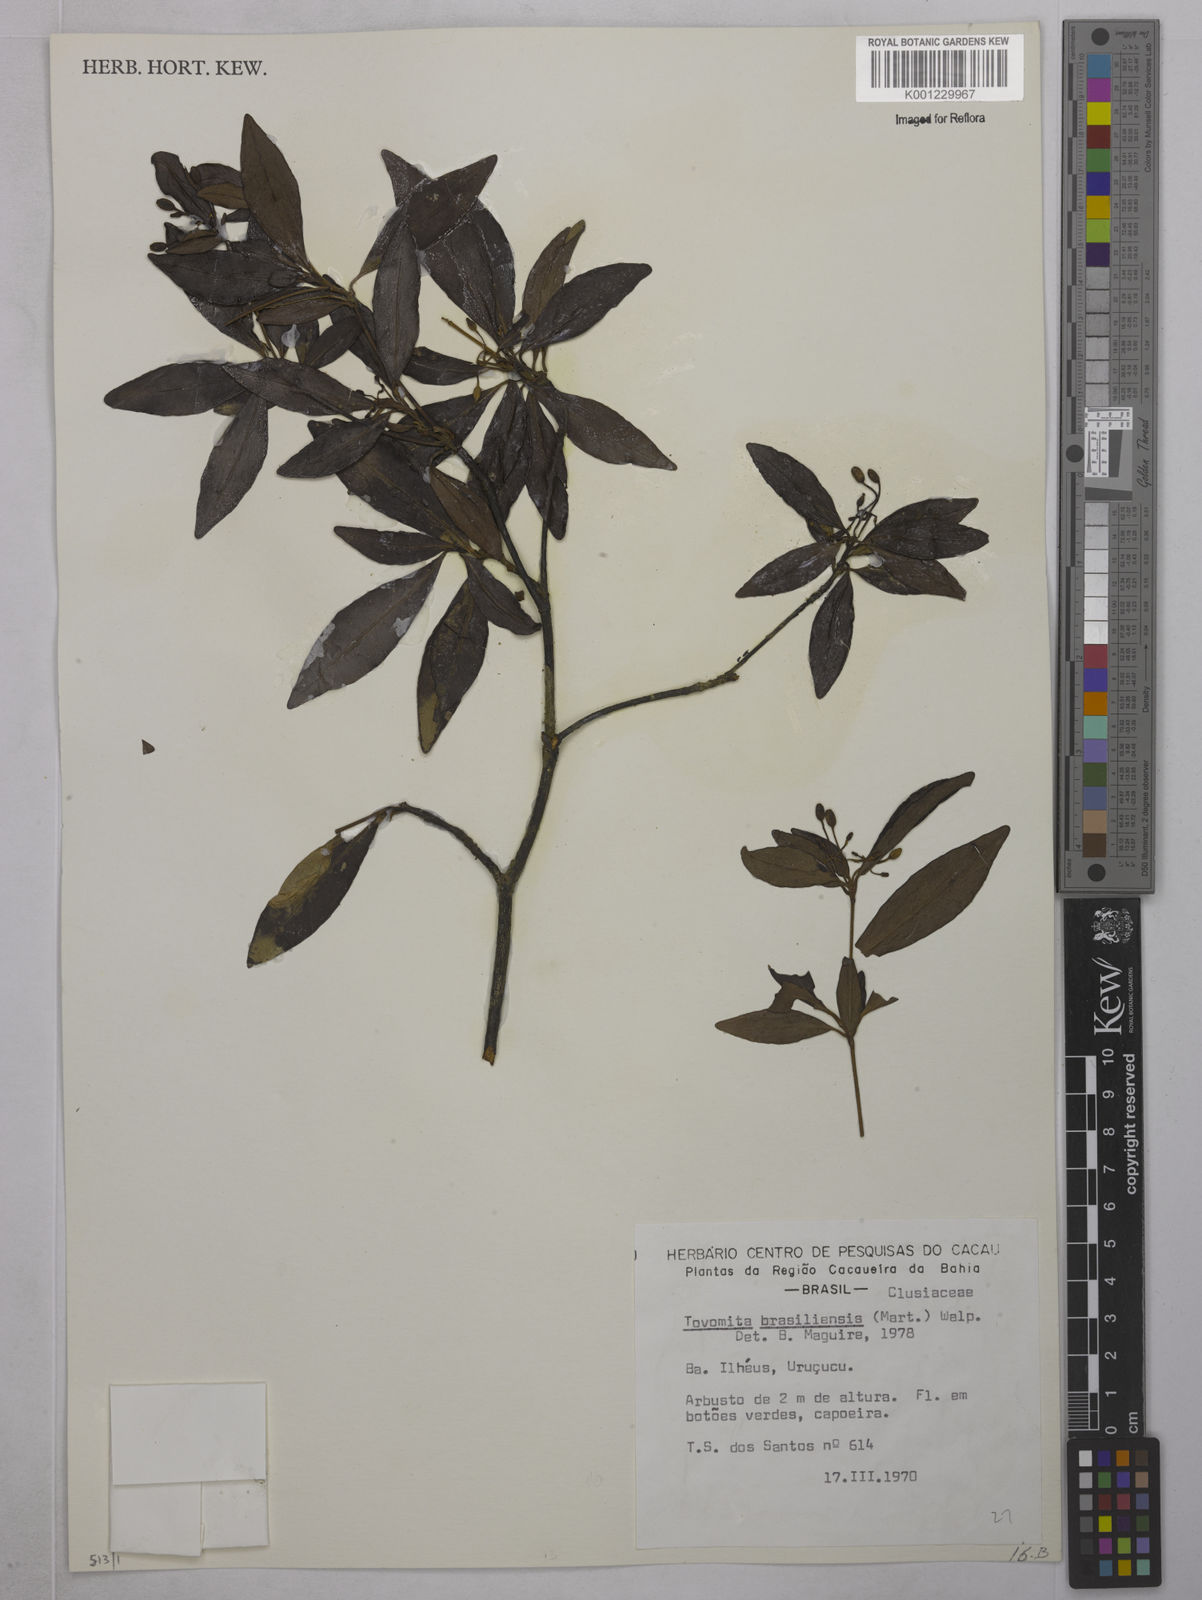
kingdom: Plantae
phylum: Tracheophyta
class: Magnoliopsida
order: Malpighiales
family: Clusiaceae
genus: Tovomita
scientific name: Tovomita
